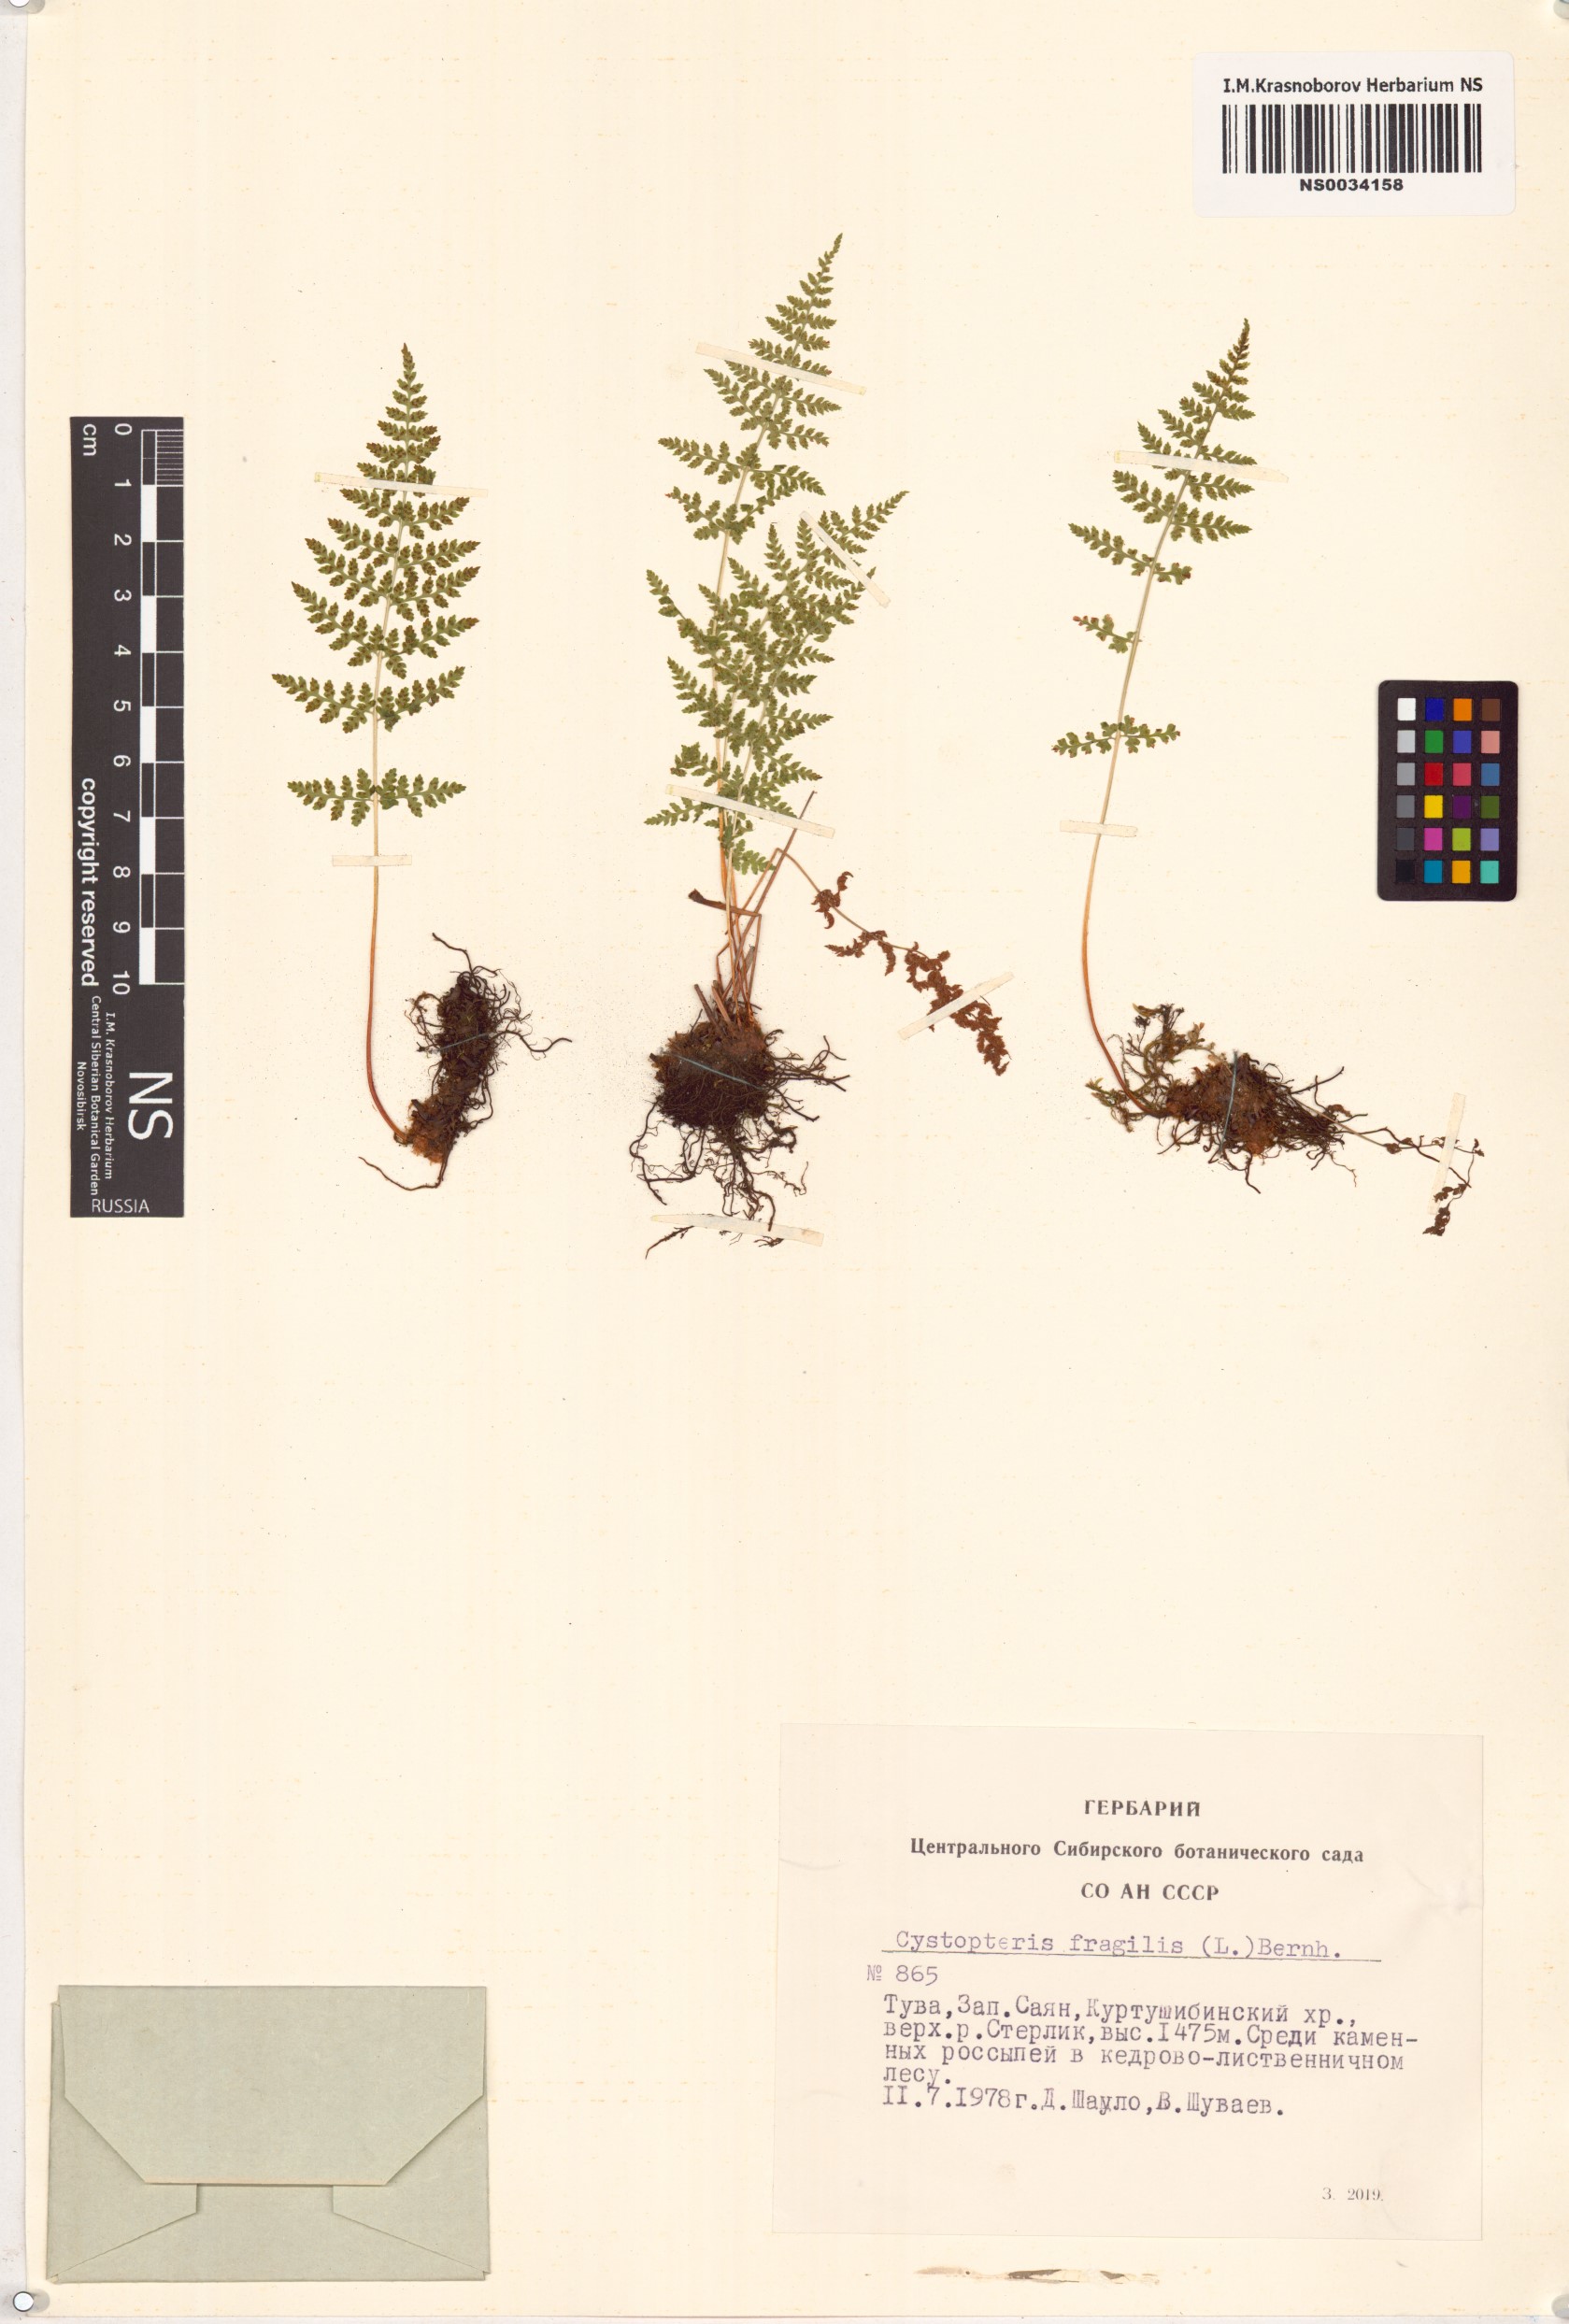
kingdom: Plantae
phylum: Tracheophyta
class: Polypodiopsida
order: Polypodiales
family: Cystopteridaceae
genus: Cystopteris
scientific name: Cystopteris fragilis
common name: Brittle bladder fern
